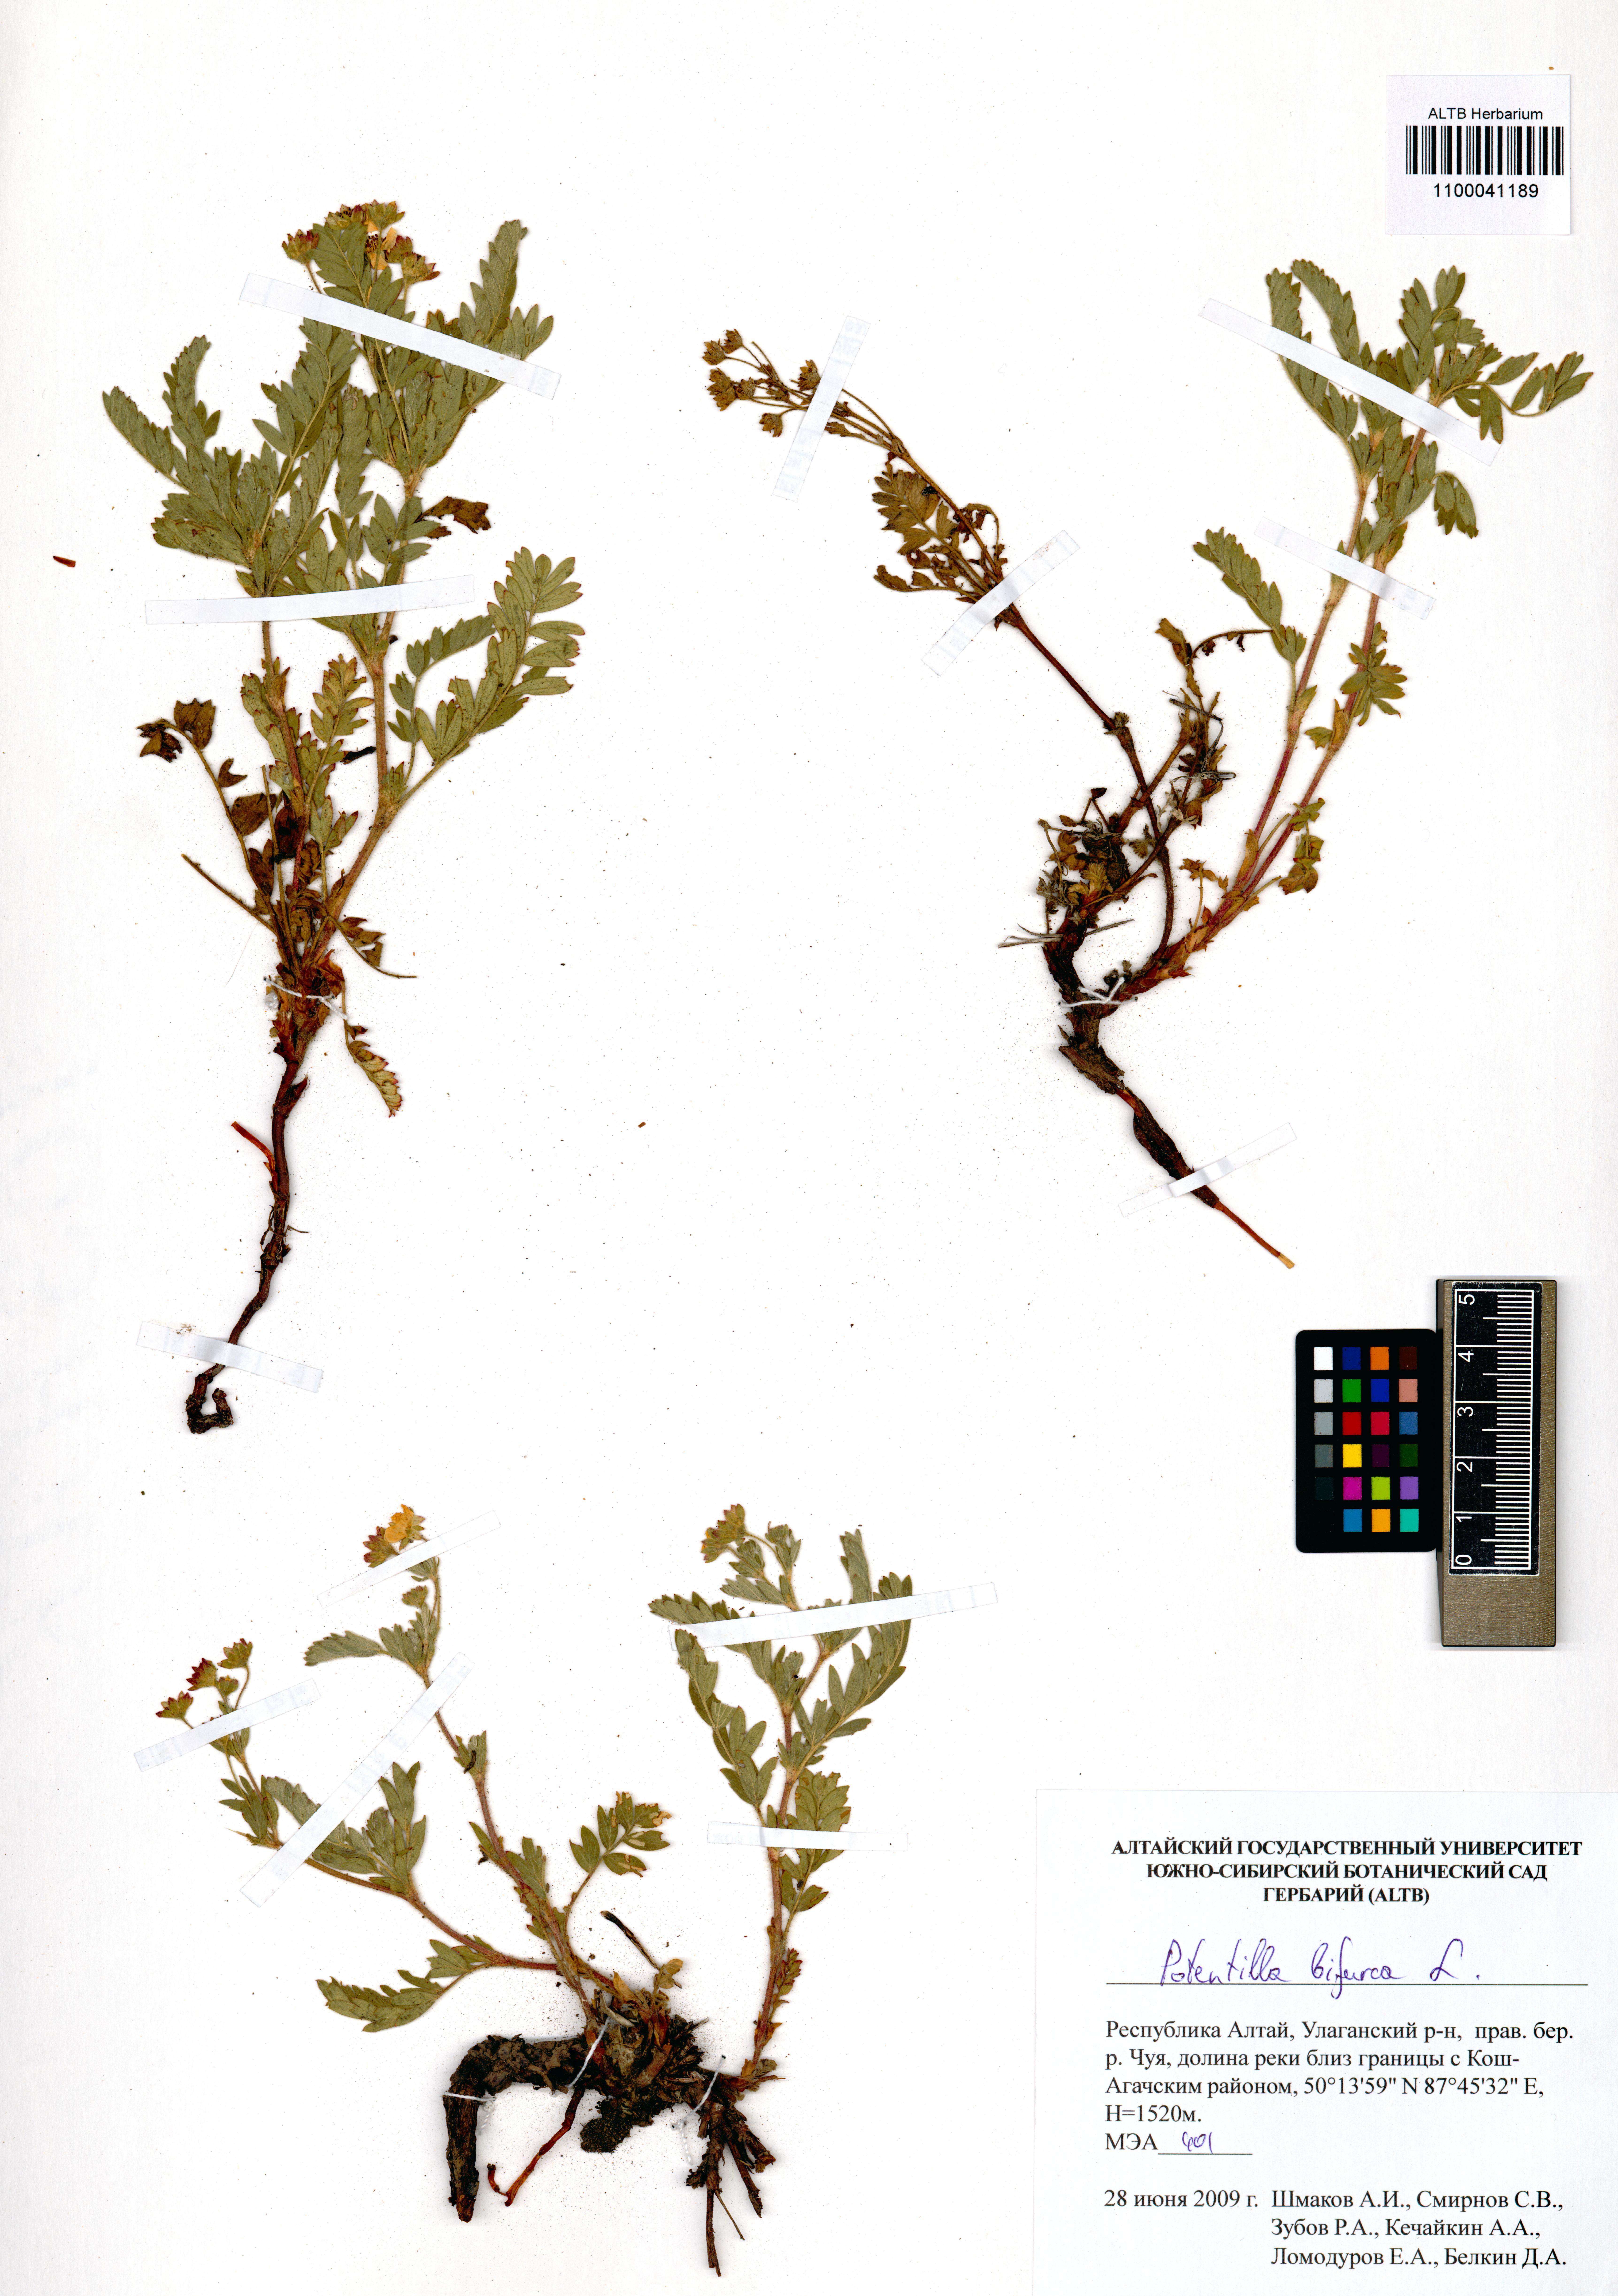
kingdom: Plantae
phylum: Tracheophyta
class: Magnoliopsida
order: Rosales
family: Rosaceae
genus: Sibbaldianthe
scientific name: Sibbaldianthe bifurca
